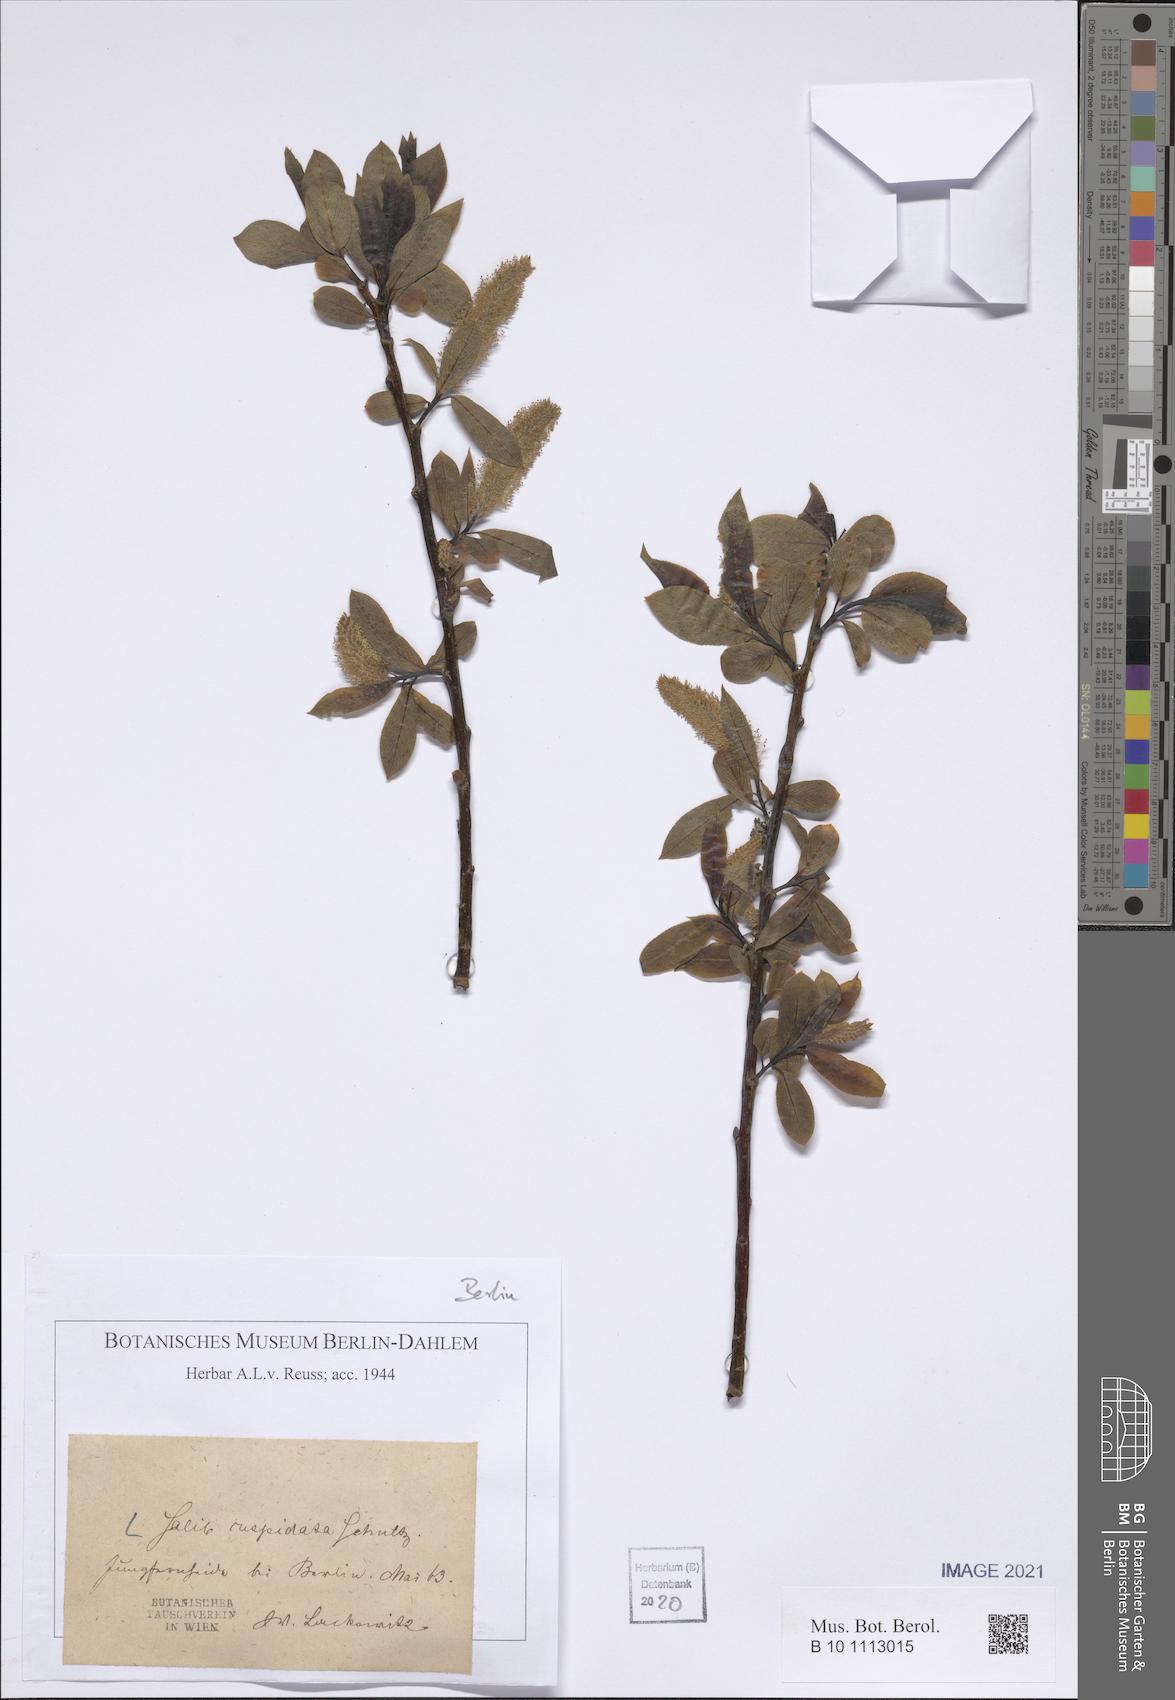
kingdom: Plantae
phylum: Tracheophyta
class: Magnoliopsida
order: Malpighiales
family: Salicaceae
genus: Salix
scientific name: Salix meyeriana
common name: Shiny-leaf willow
